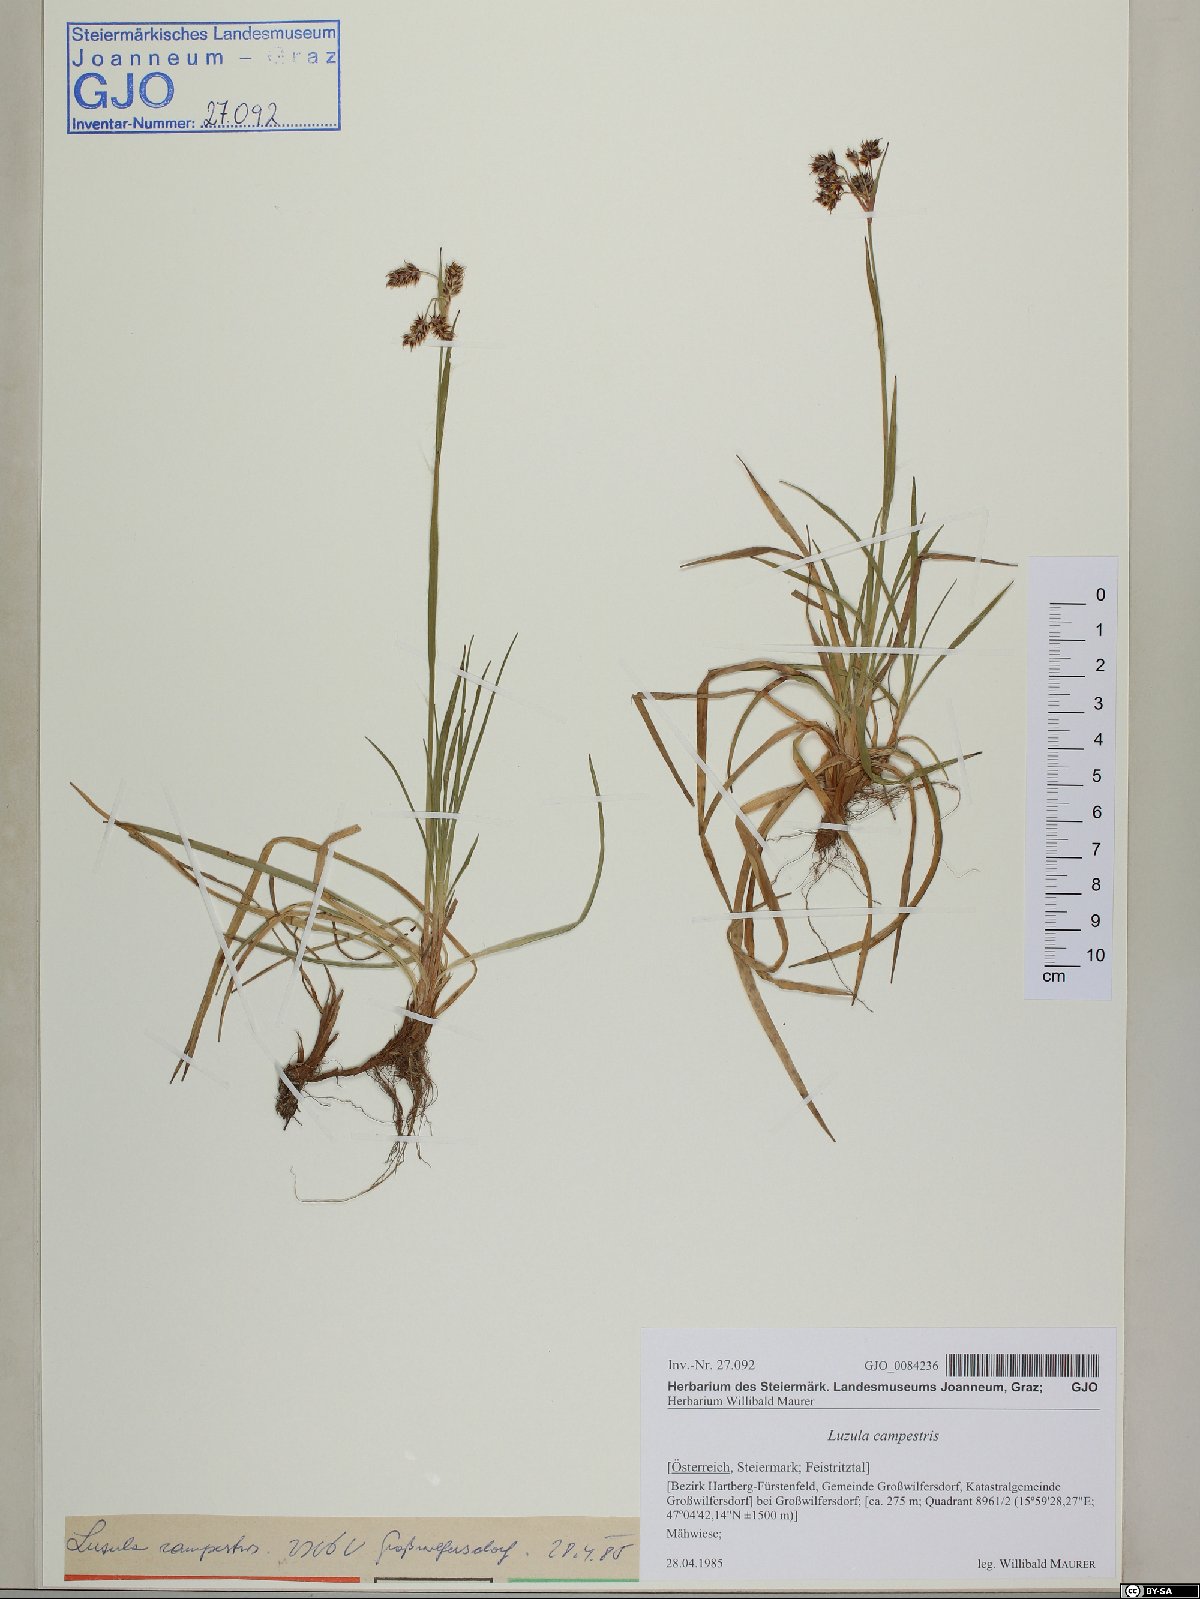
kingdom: Plantae
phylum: Tracheophyta
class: Liliopsida
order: Poales
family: Juncaceae
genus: Luzula
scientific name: Luzula campestris
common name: Field wood-rush
